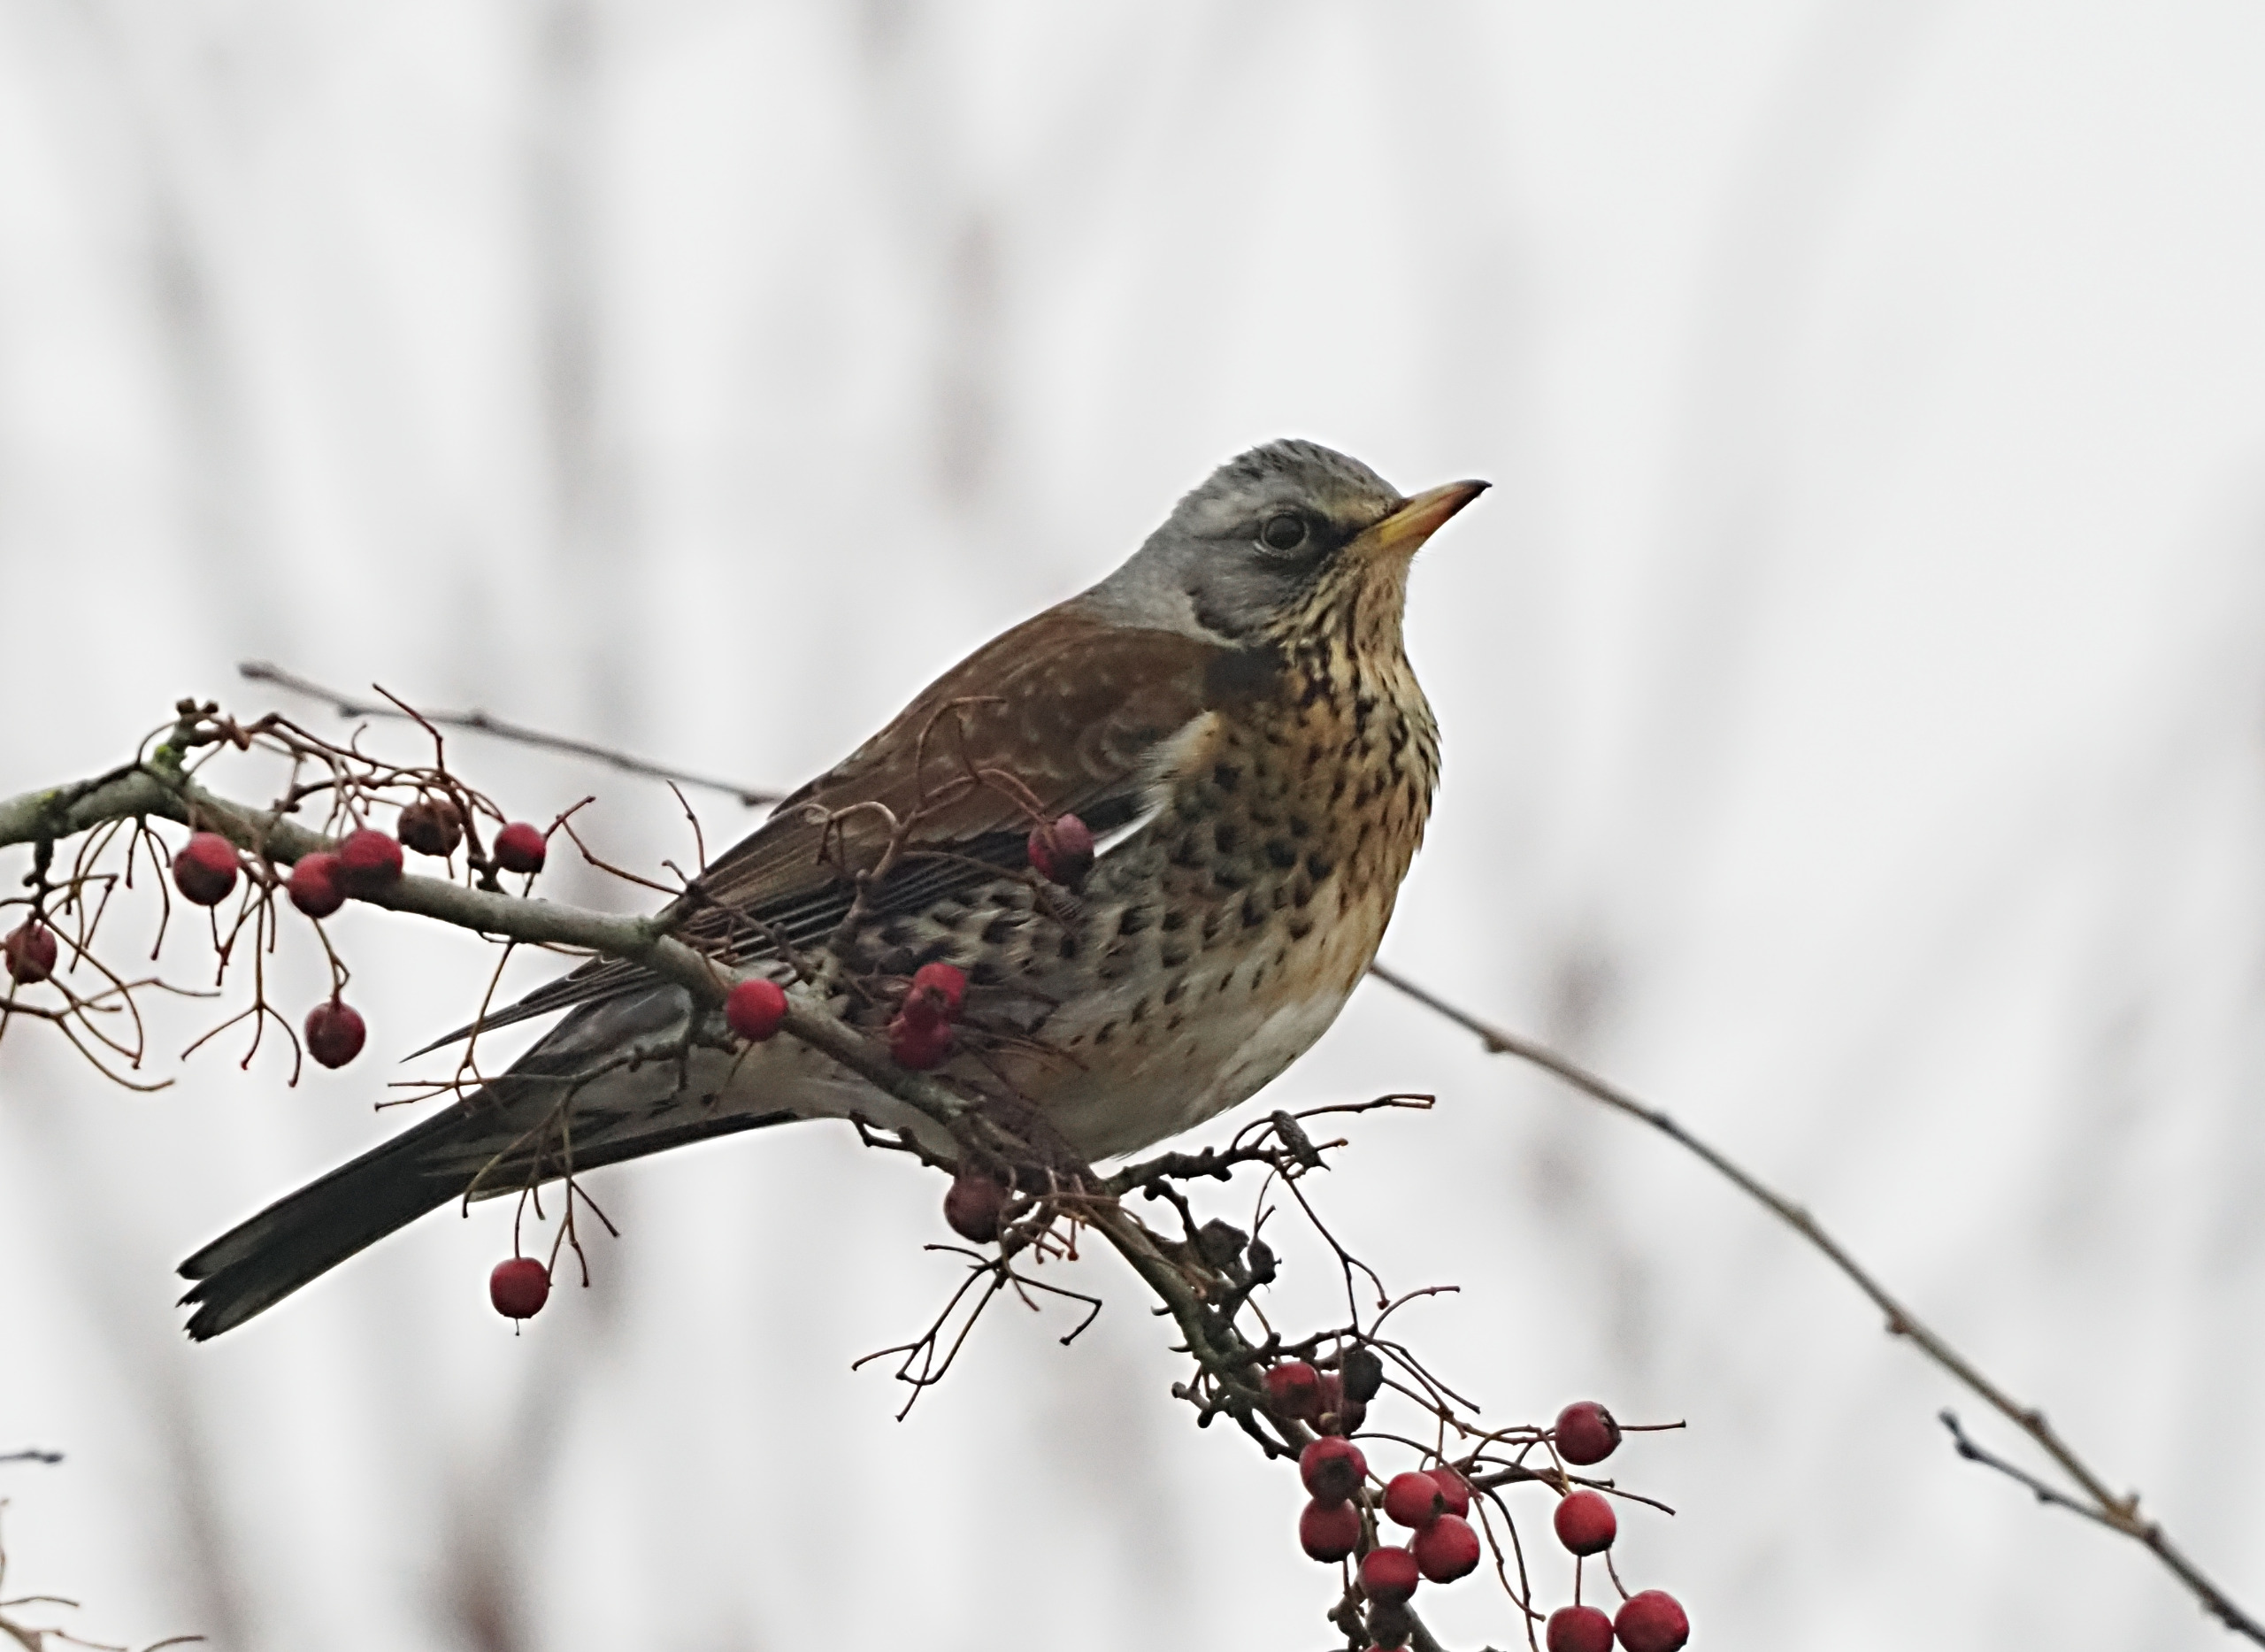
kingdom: Animalia
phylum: Chordata
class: Aves
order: Passeriformes
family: Turdidae
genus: Turdus
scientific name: Turdus pilaris
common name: Sjagger
